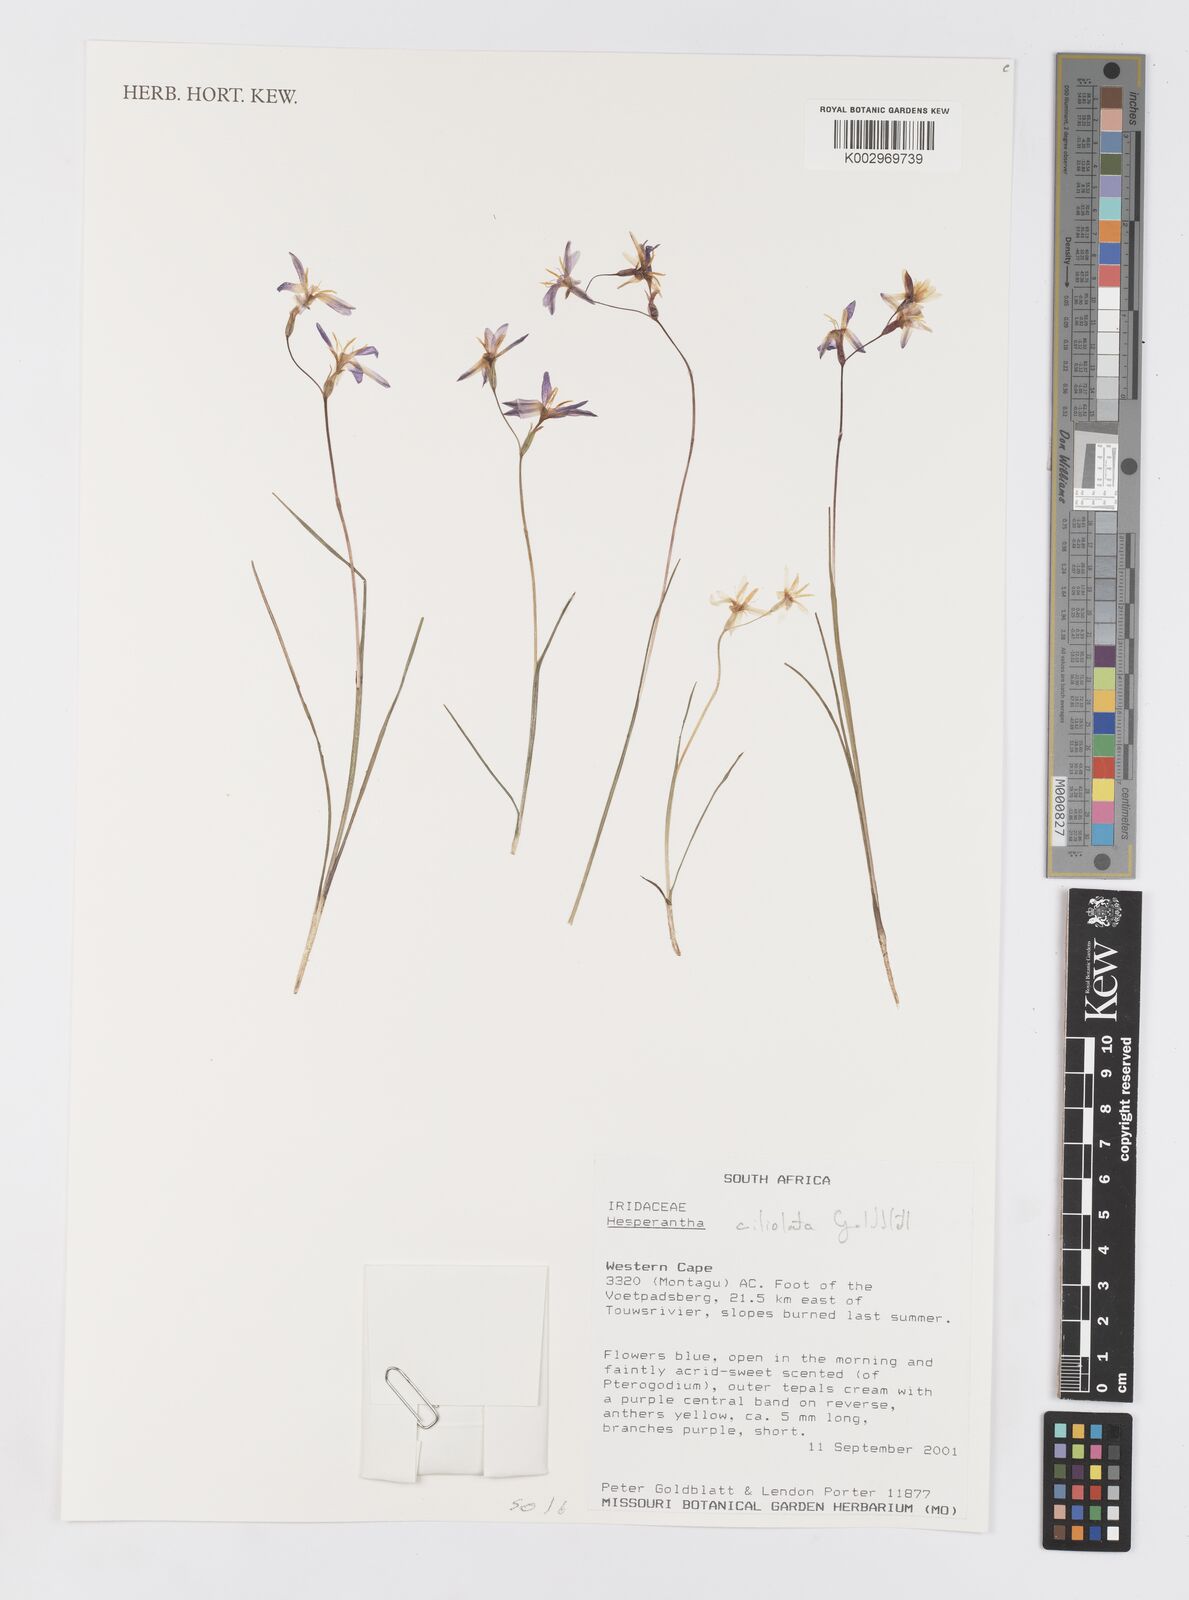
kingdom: Plantae
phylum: Tracheophyta
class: Liliopsida
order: Asparagales
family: Iridaceae
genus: Hesperantha
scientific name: Hesperantha pilosa
